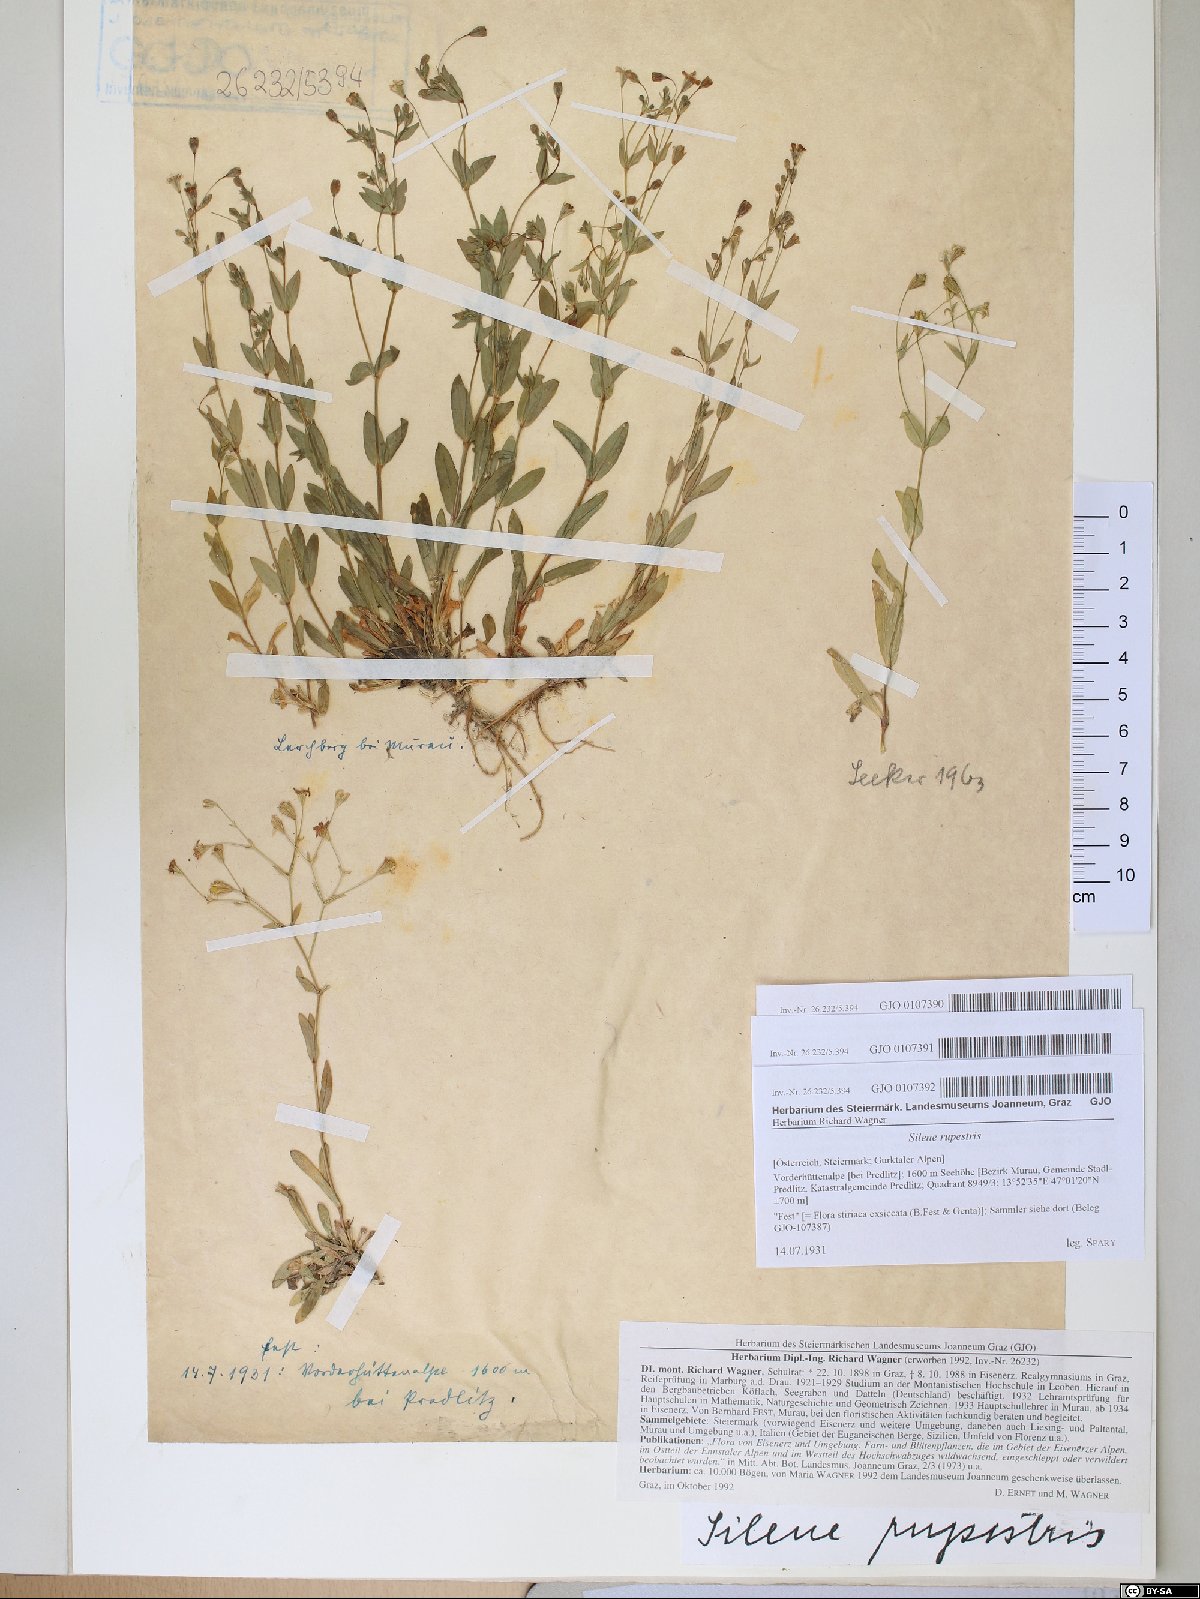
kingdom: Plantae
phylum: Tracheophyta
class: Magnoliopsida
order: Caryophyllales
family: Caryophyllaceae
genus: Atocion
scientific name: Atocion rupestre
